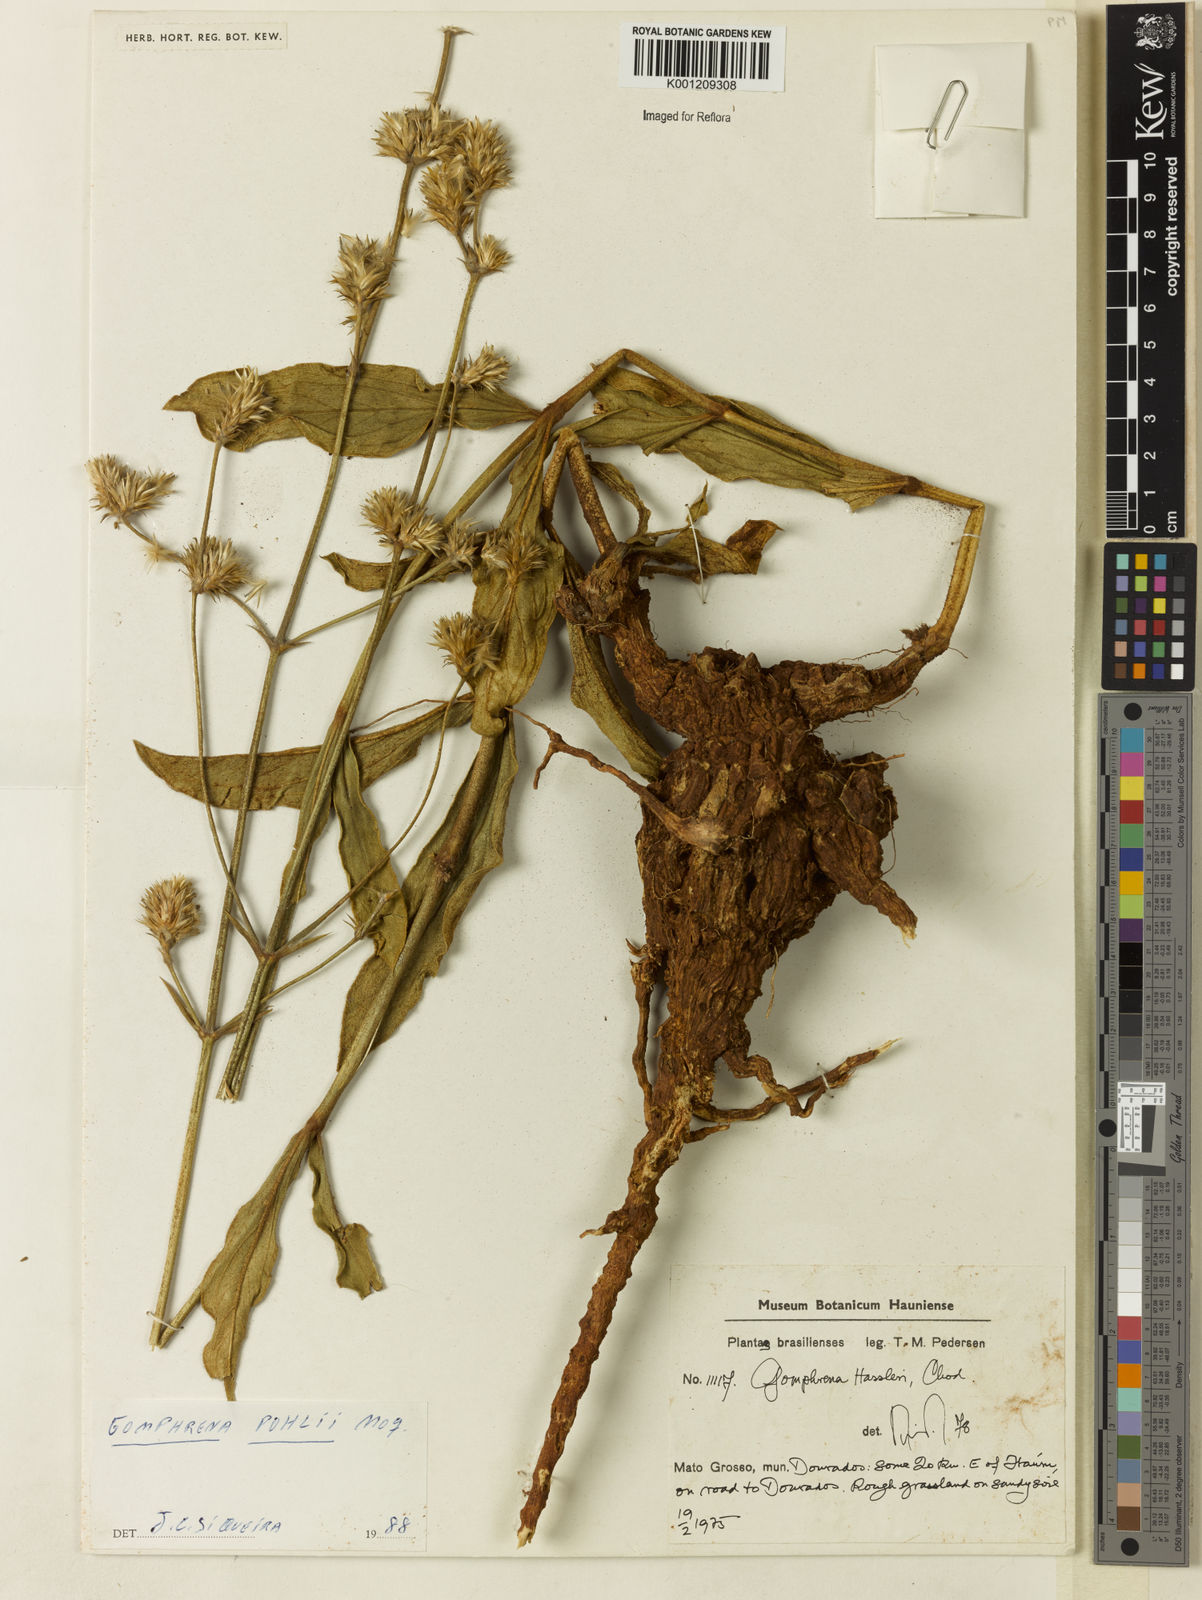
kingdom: Plantae
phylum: Tracheophyta
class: Magnoliopsida
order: Caryophyllales
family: Amaranthaceae
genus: Gomphrena
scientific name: Gomphrena pohlii
